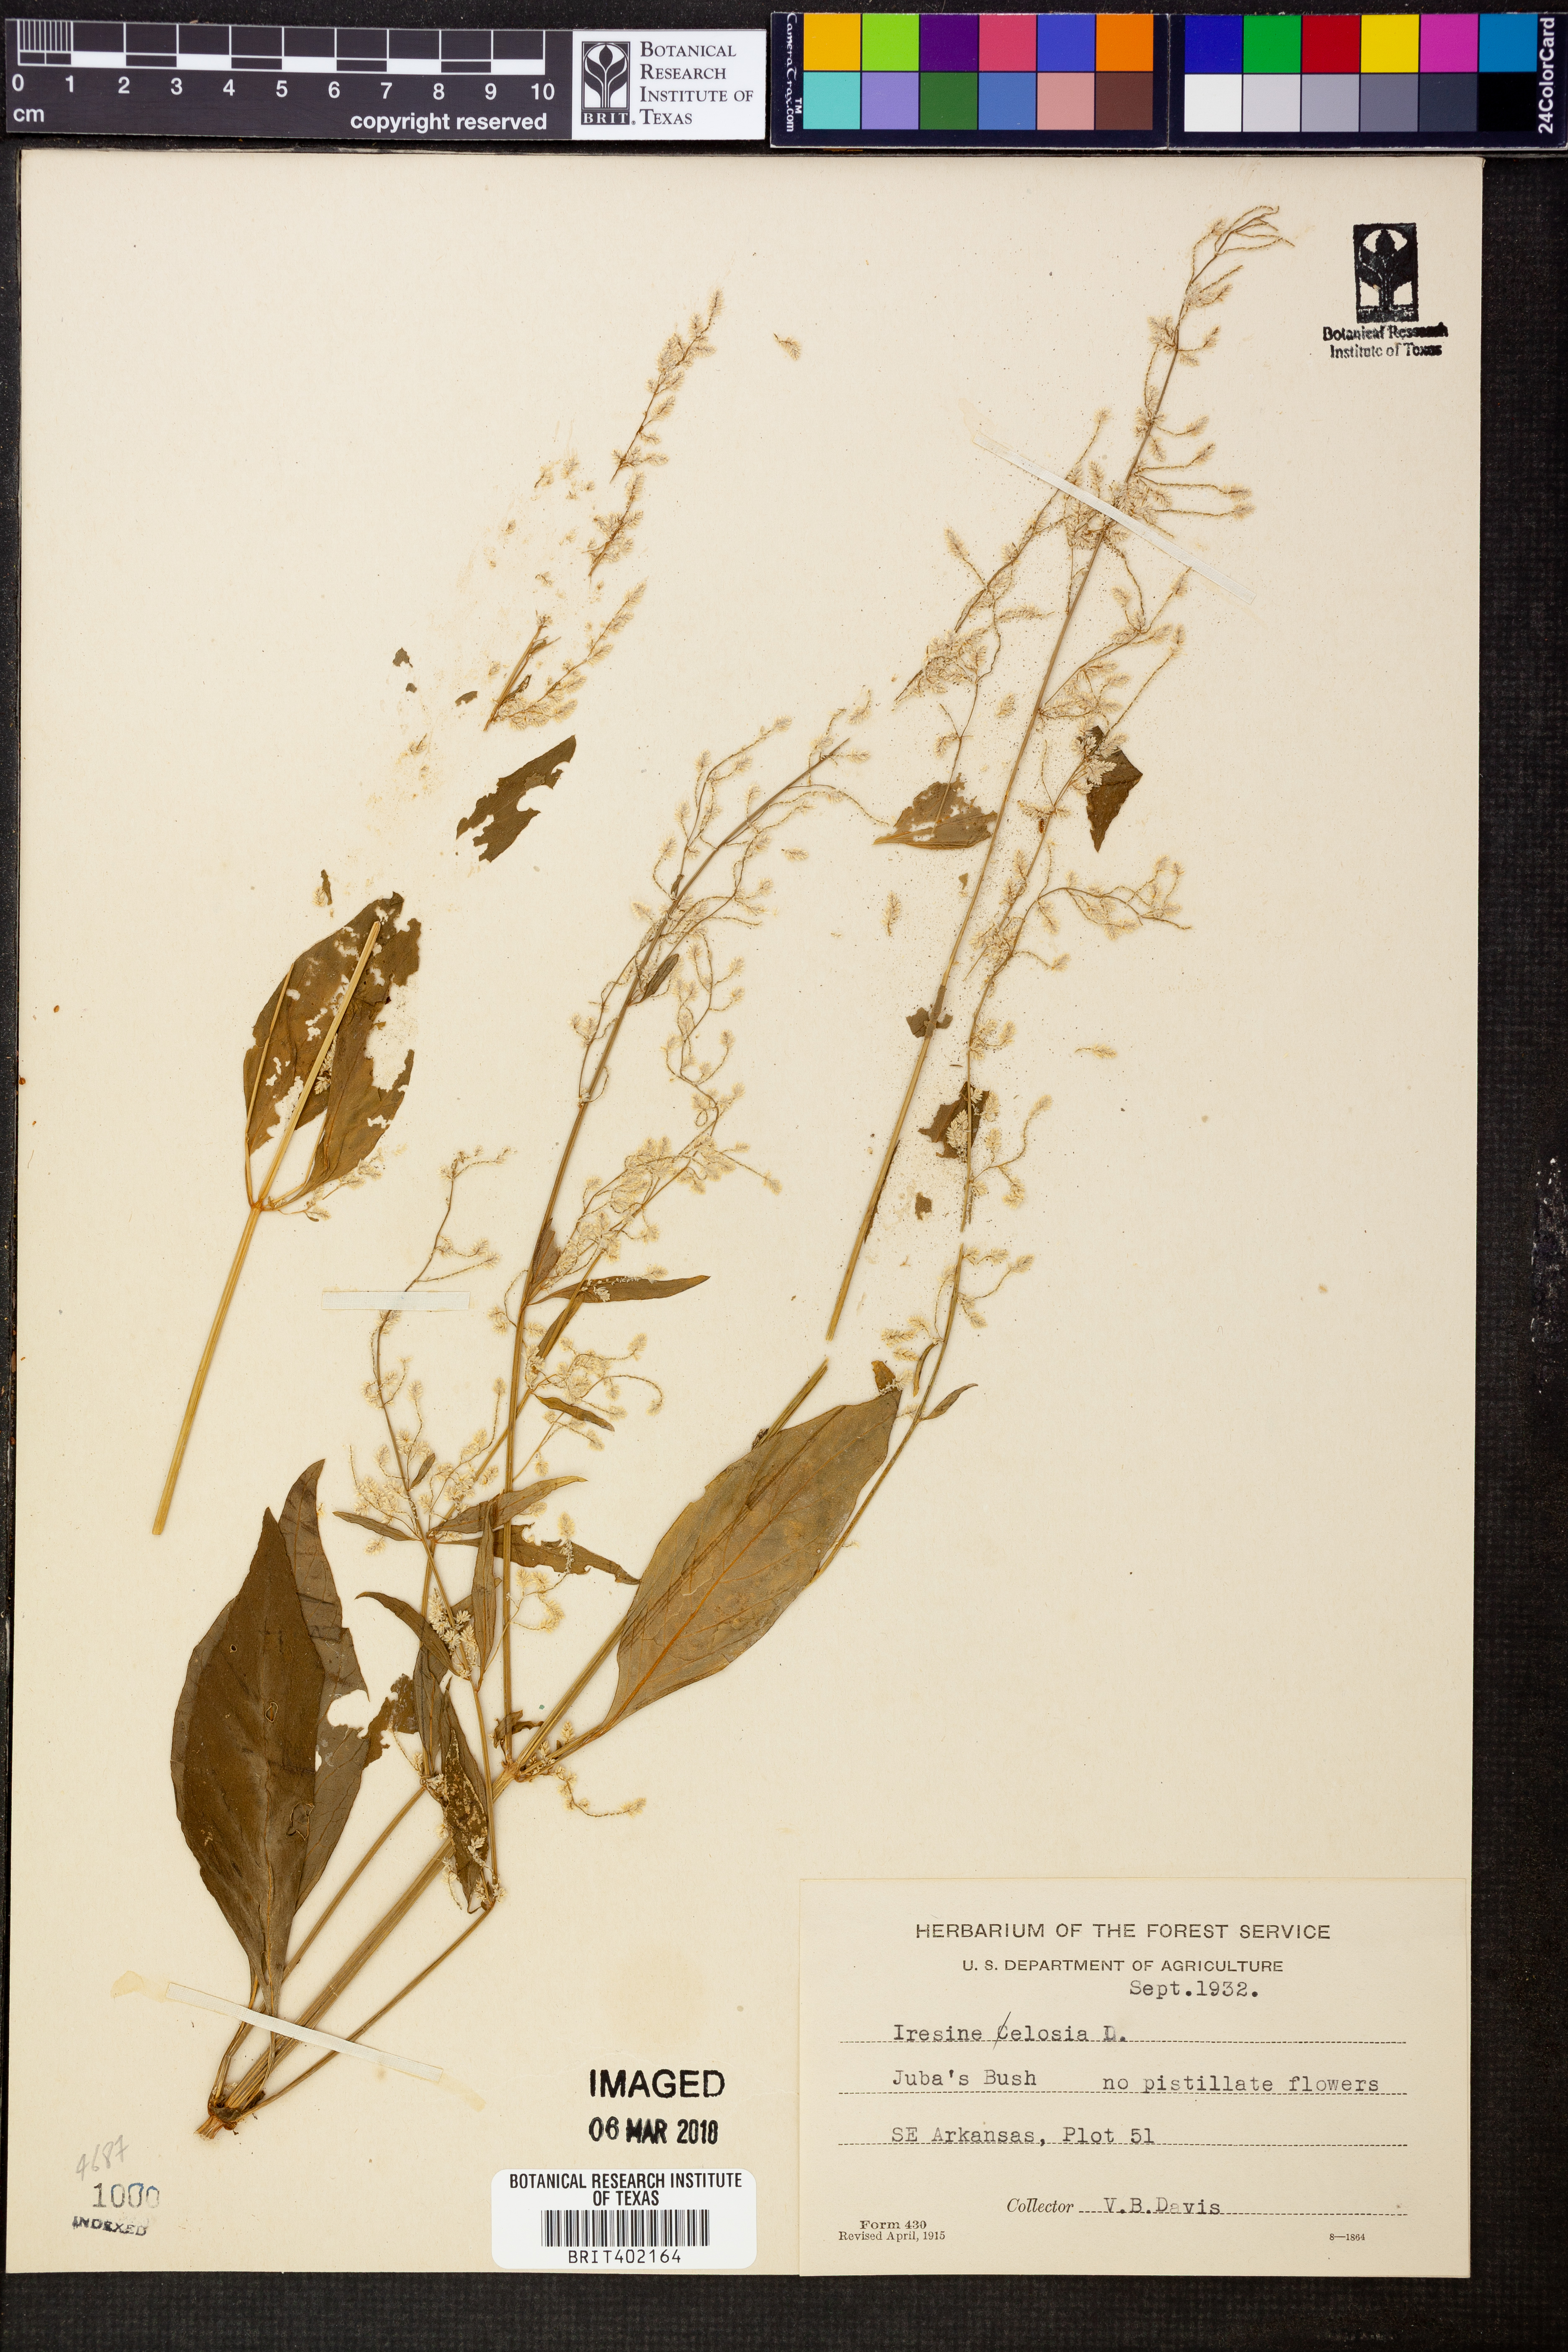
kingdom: Plantae
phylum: Tracheophyta
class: Magnoliopsida
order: Caryophyllales
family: Amaranthaceae
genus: Iresine
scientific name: Iresine rhizomatosa
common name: Juda's-bush
